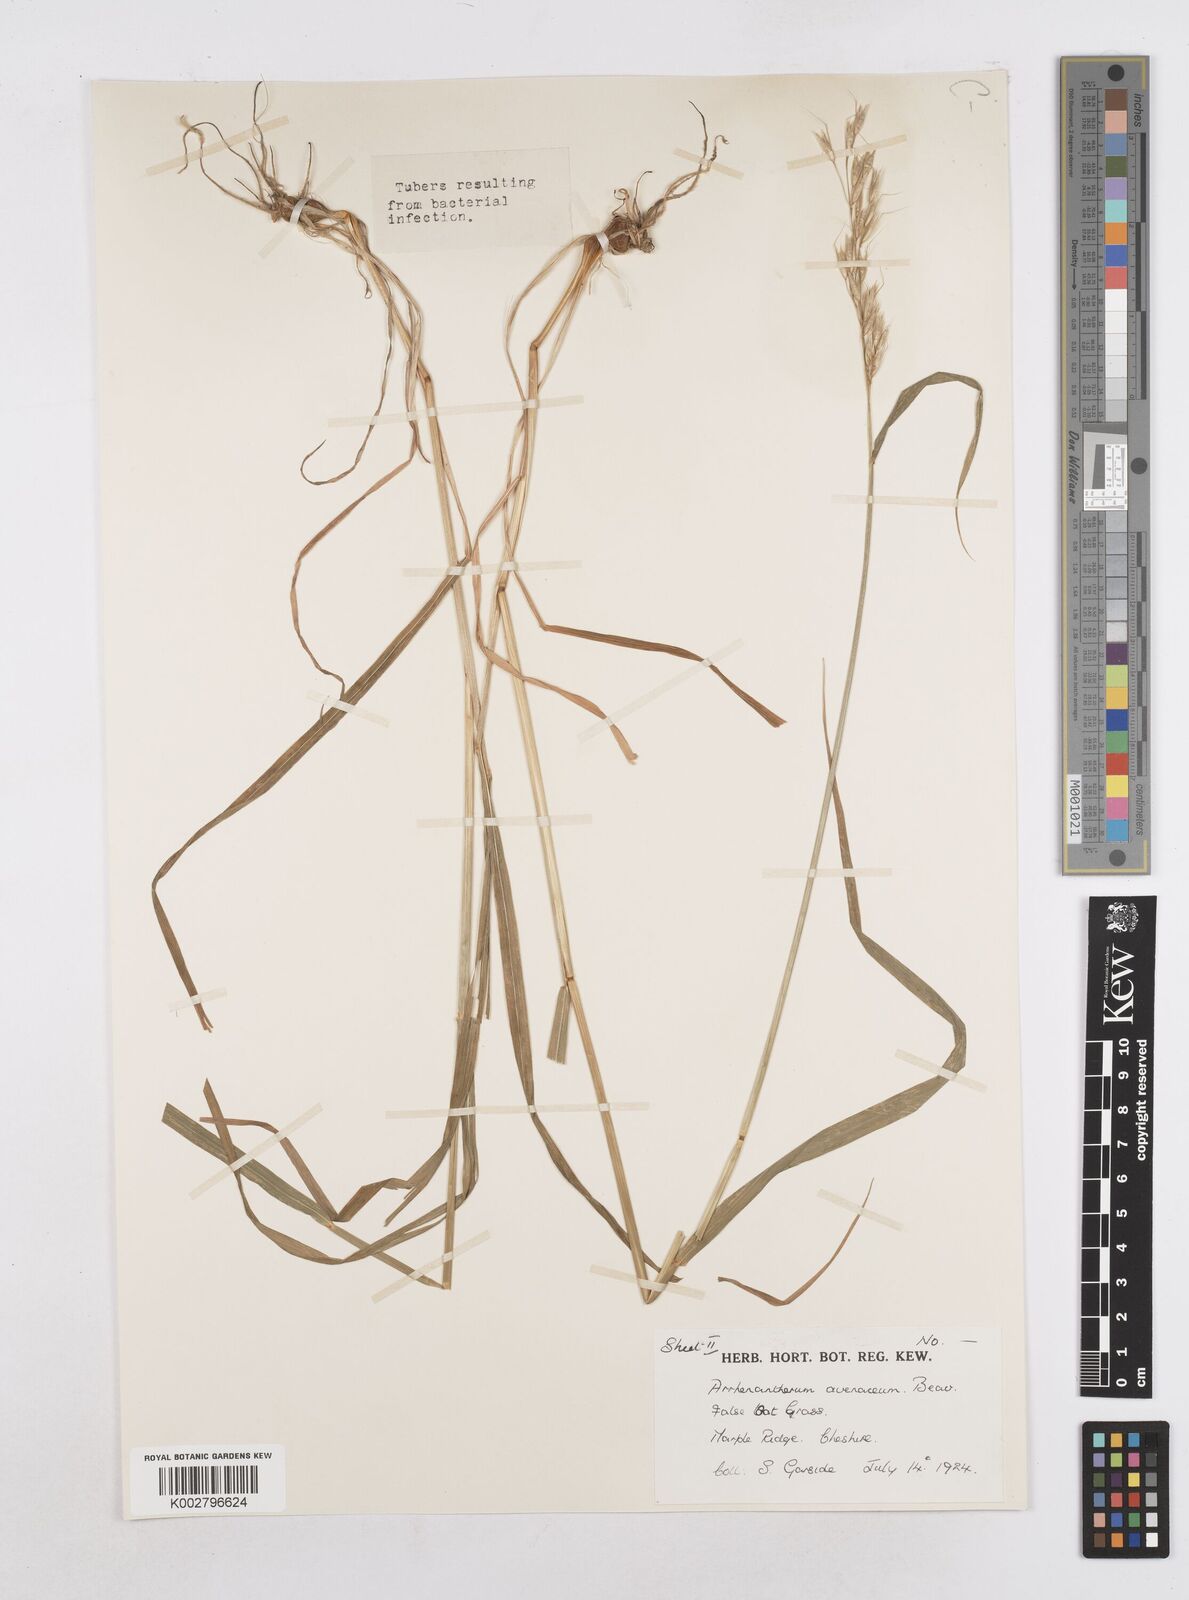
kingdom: Plantae
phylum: Tracheophyta
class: Liliopsida
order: Poales
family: Poaceae
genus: Arrhenatherum
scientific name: Arrhenatherum elatius
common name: Tall oatgrass
